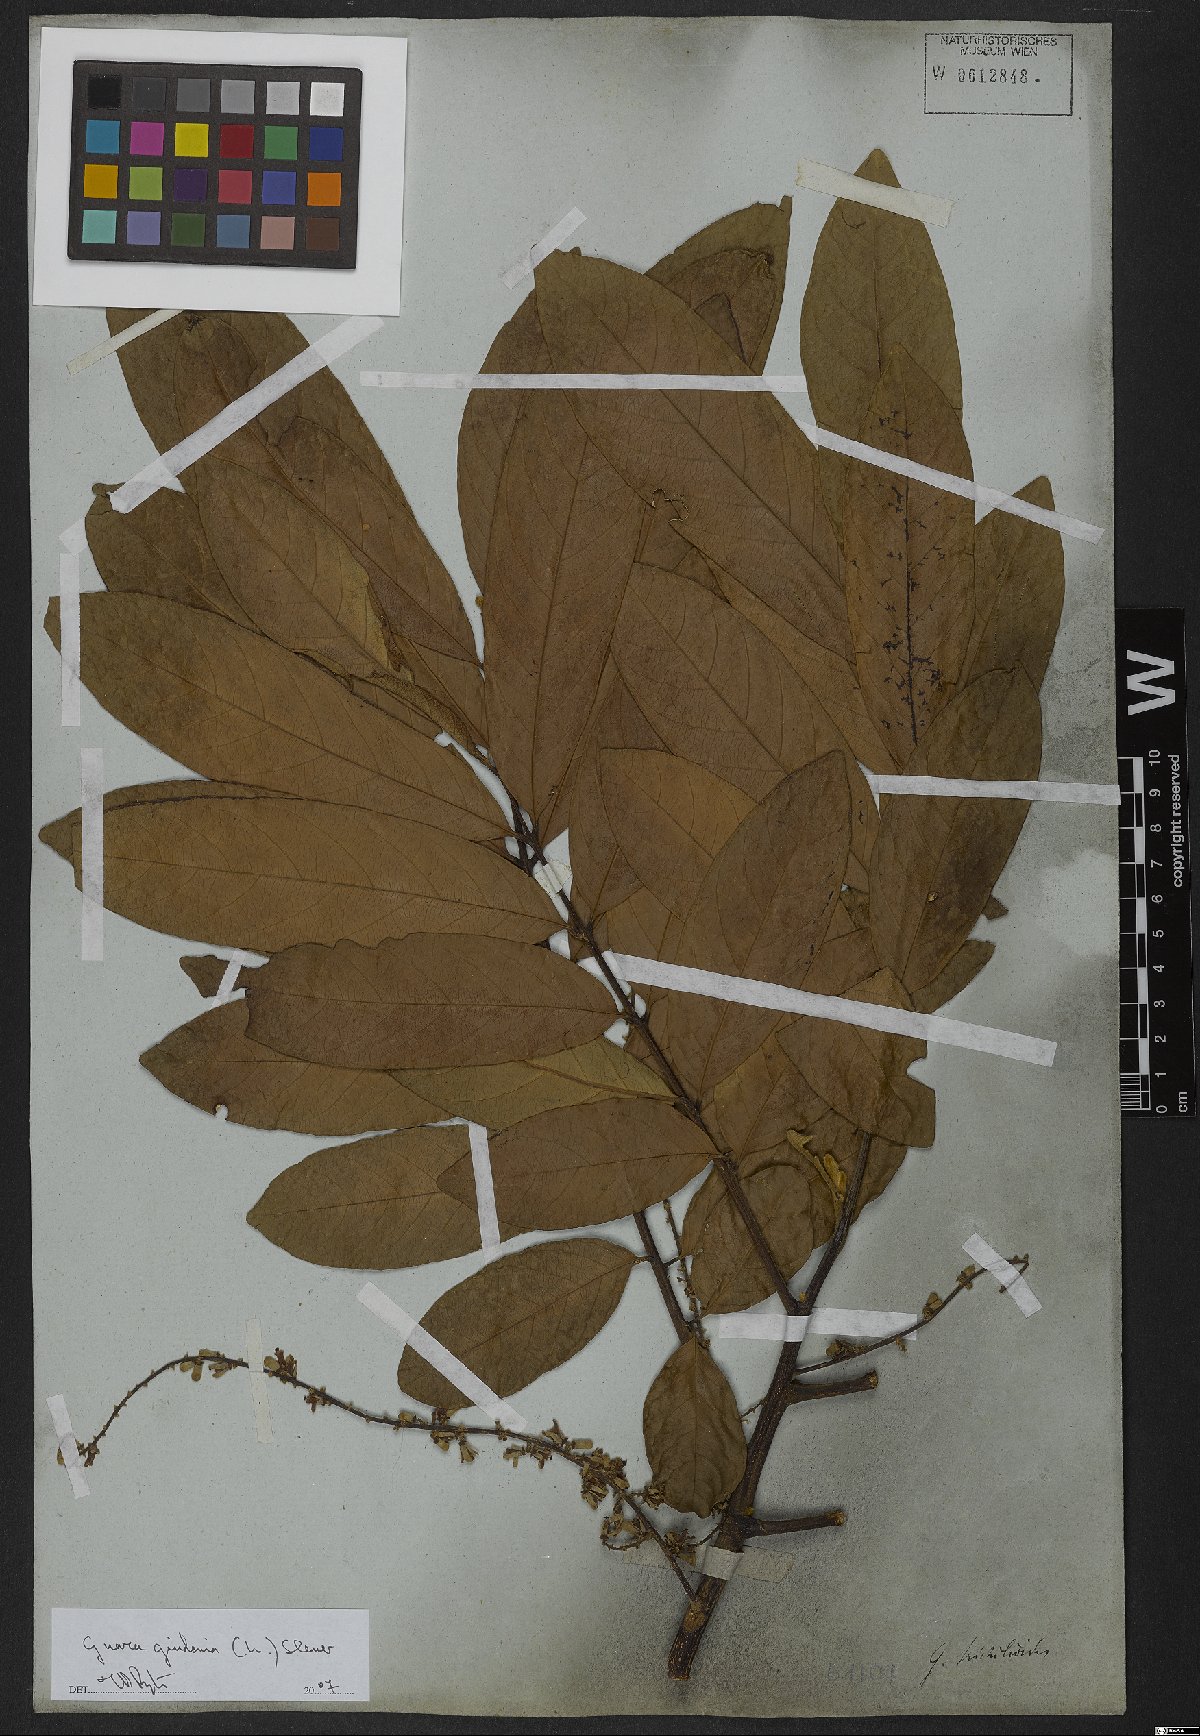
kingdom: Plantae
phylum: Tracheophyta
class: Magnoliopsida
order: Sapindales
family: Meliaceae
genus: Guarea
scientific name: Guarea guidonia
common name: American muskwood
